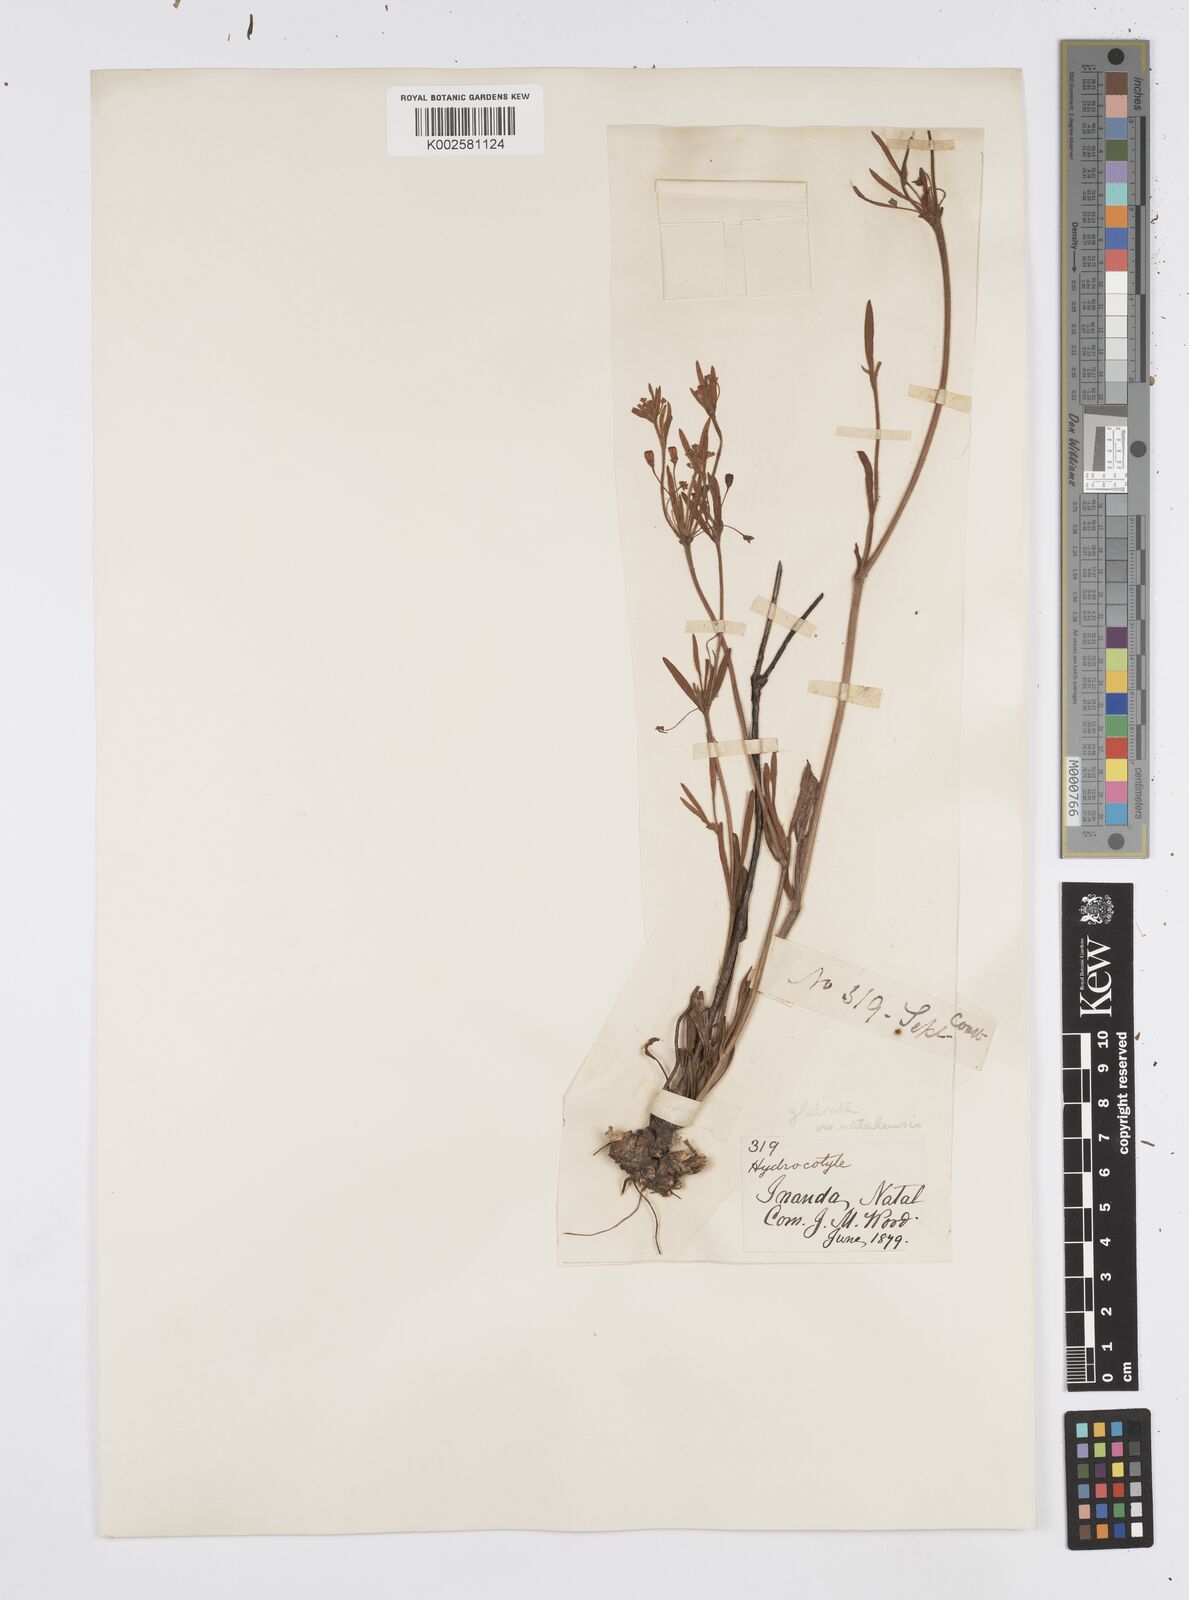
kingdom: Plantae
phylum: Tracheophyta
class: Magnoliopsida
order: Apiales
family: Apiaceae
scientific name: Apiaceae
